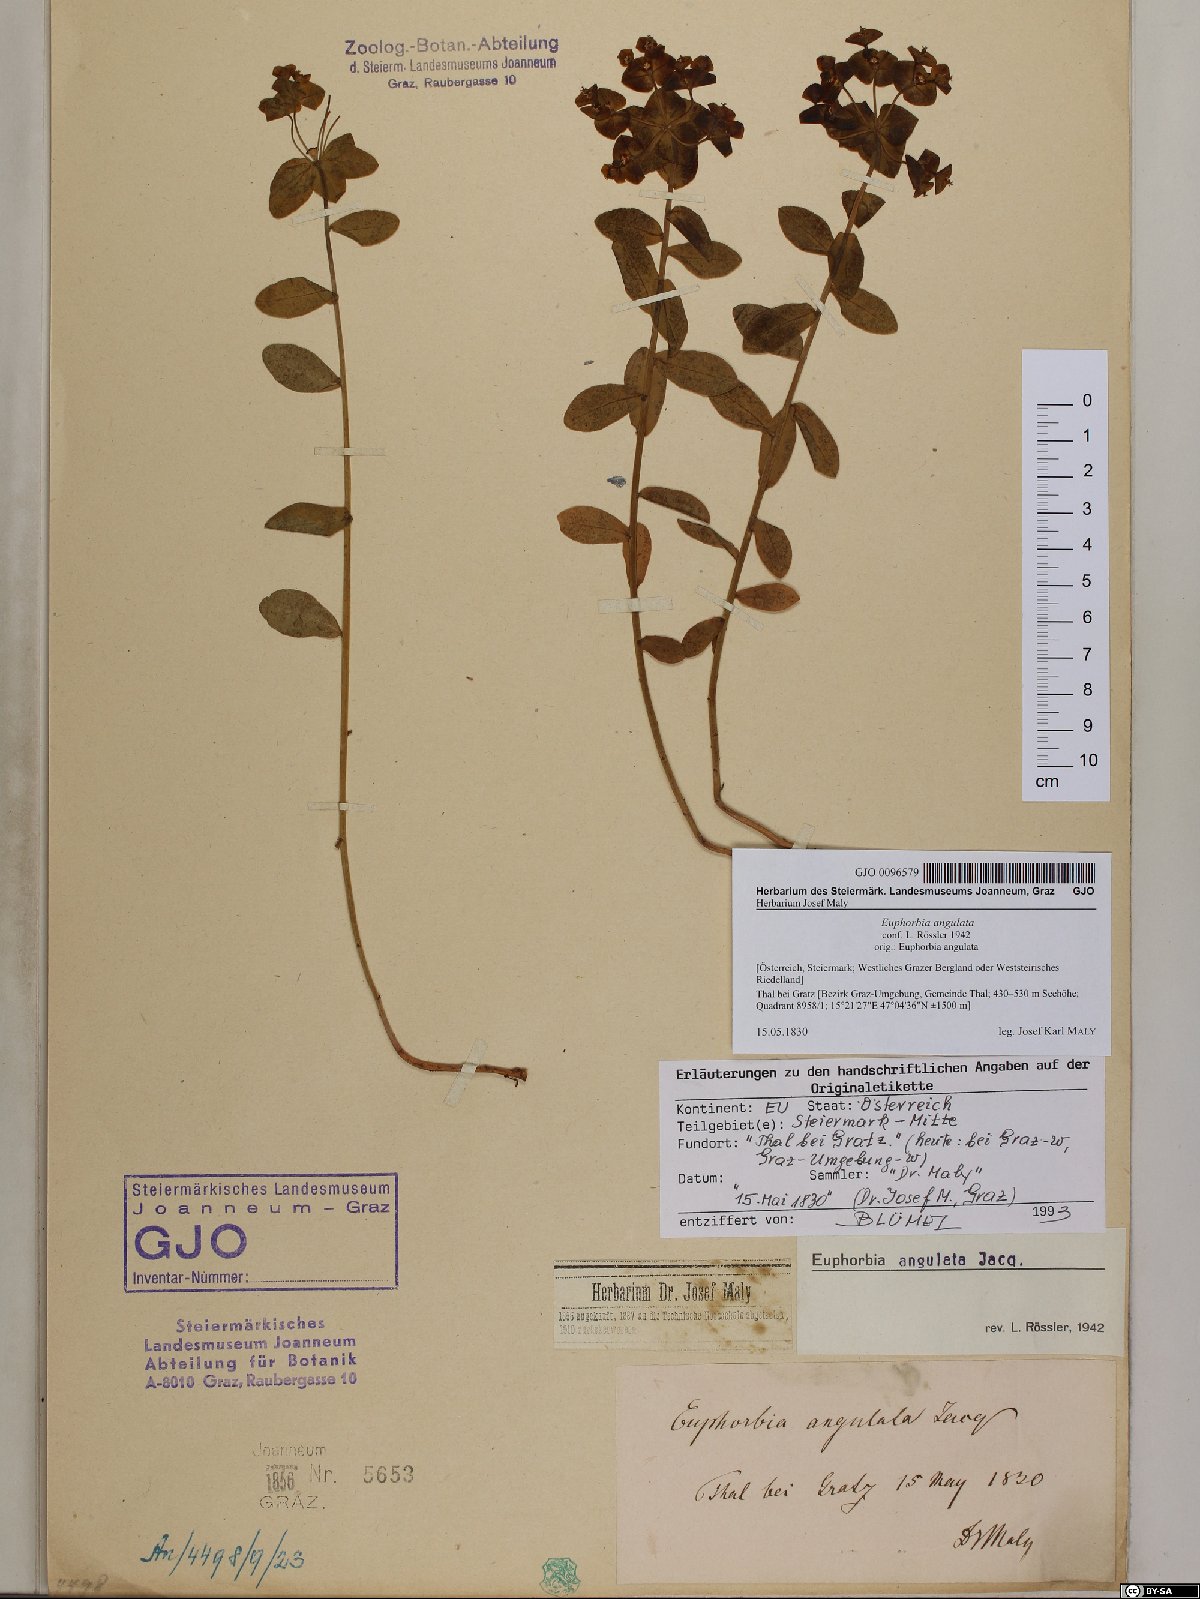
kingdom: Plantae
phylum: Tracheophyta
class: Magnoliopsida
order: Malpighiales
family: Euphorbiaceae
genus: Euphorbia
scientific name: Euphorbia angulata
